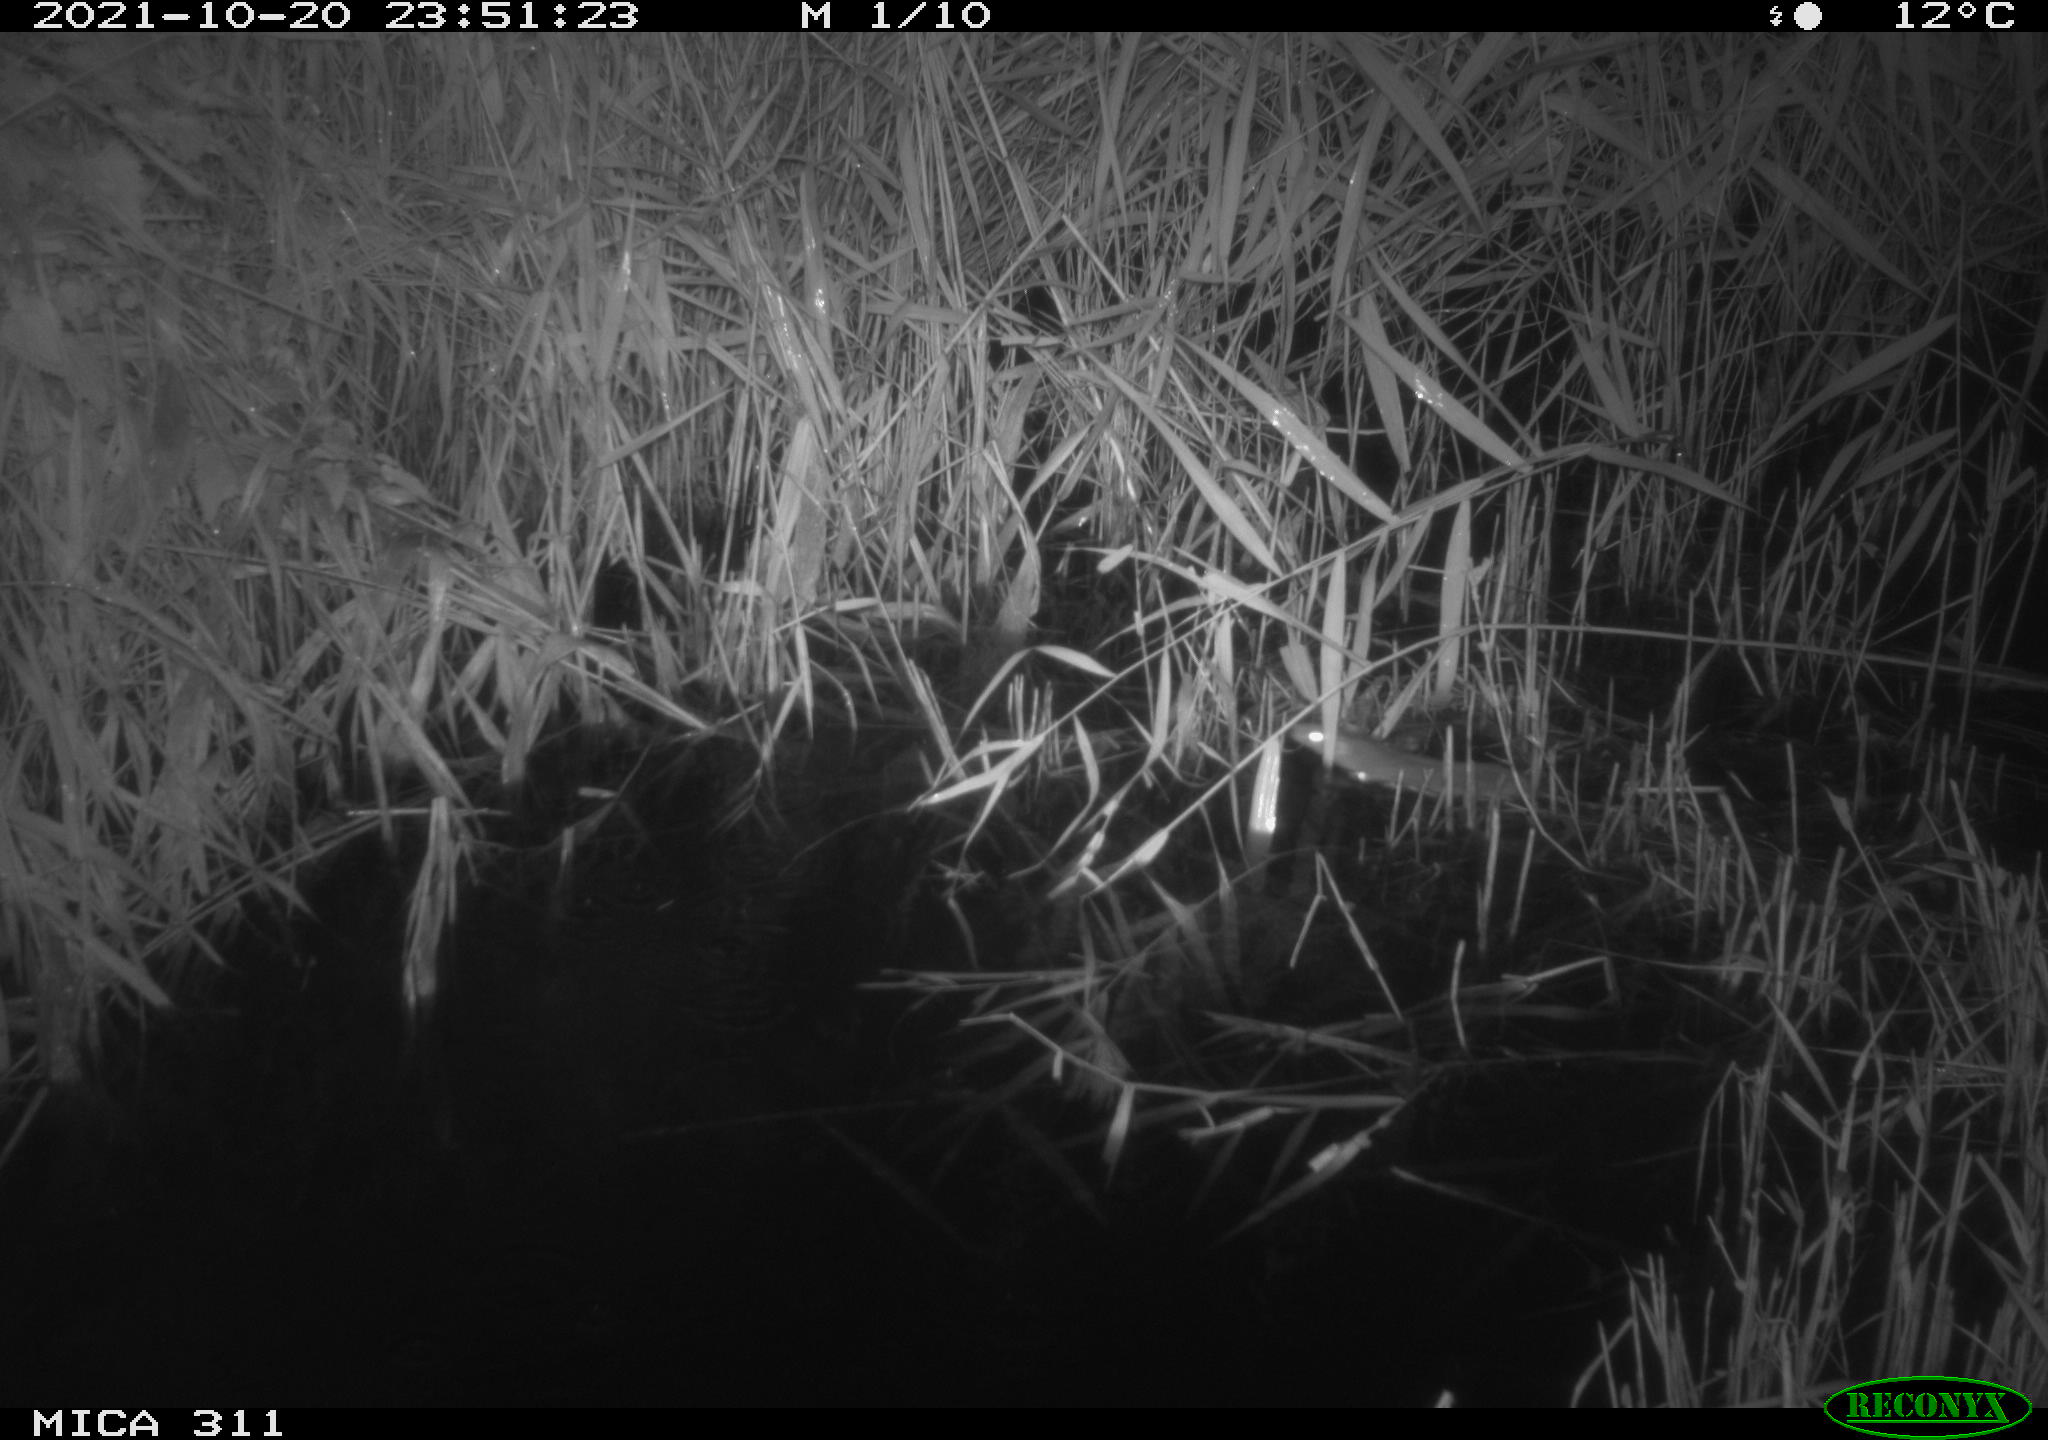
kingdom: Animalia
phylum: Chordata
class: Mammalia
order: Rodentia
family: Muridae
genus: Rattus
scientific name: Rattus norvegicus
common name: Brown rat
